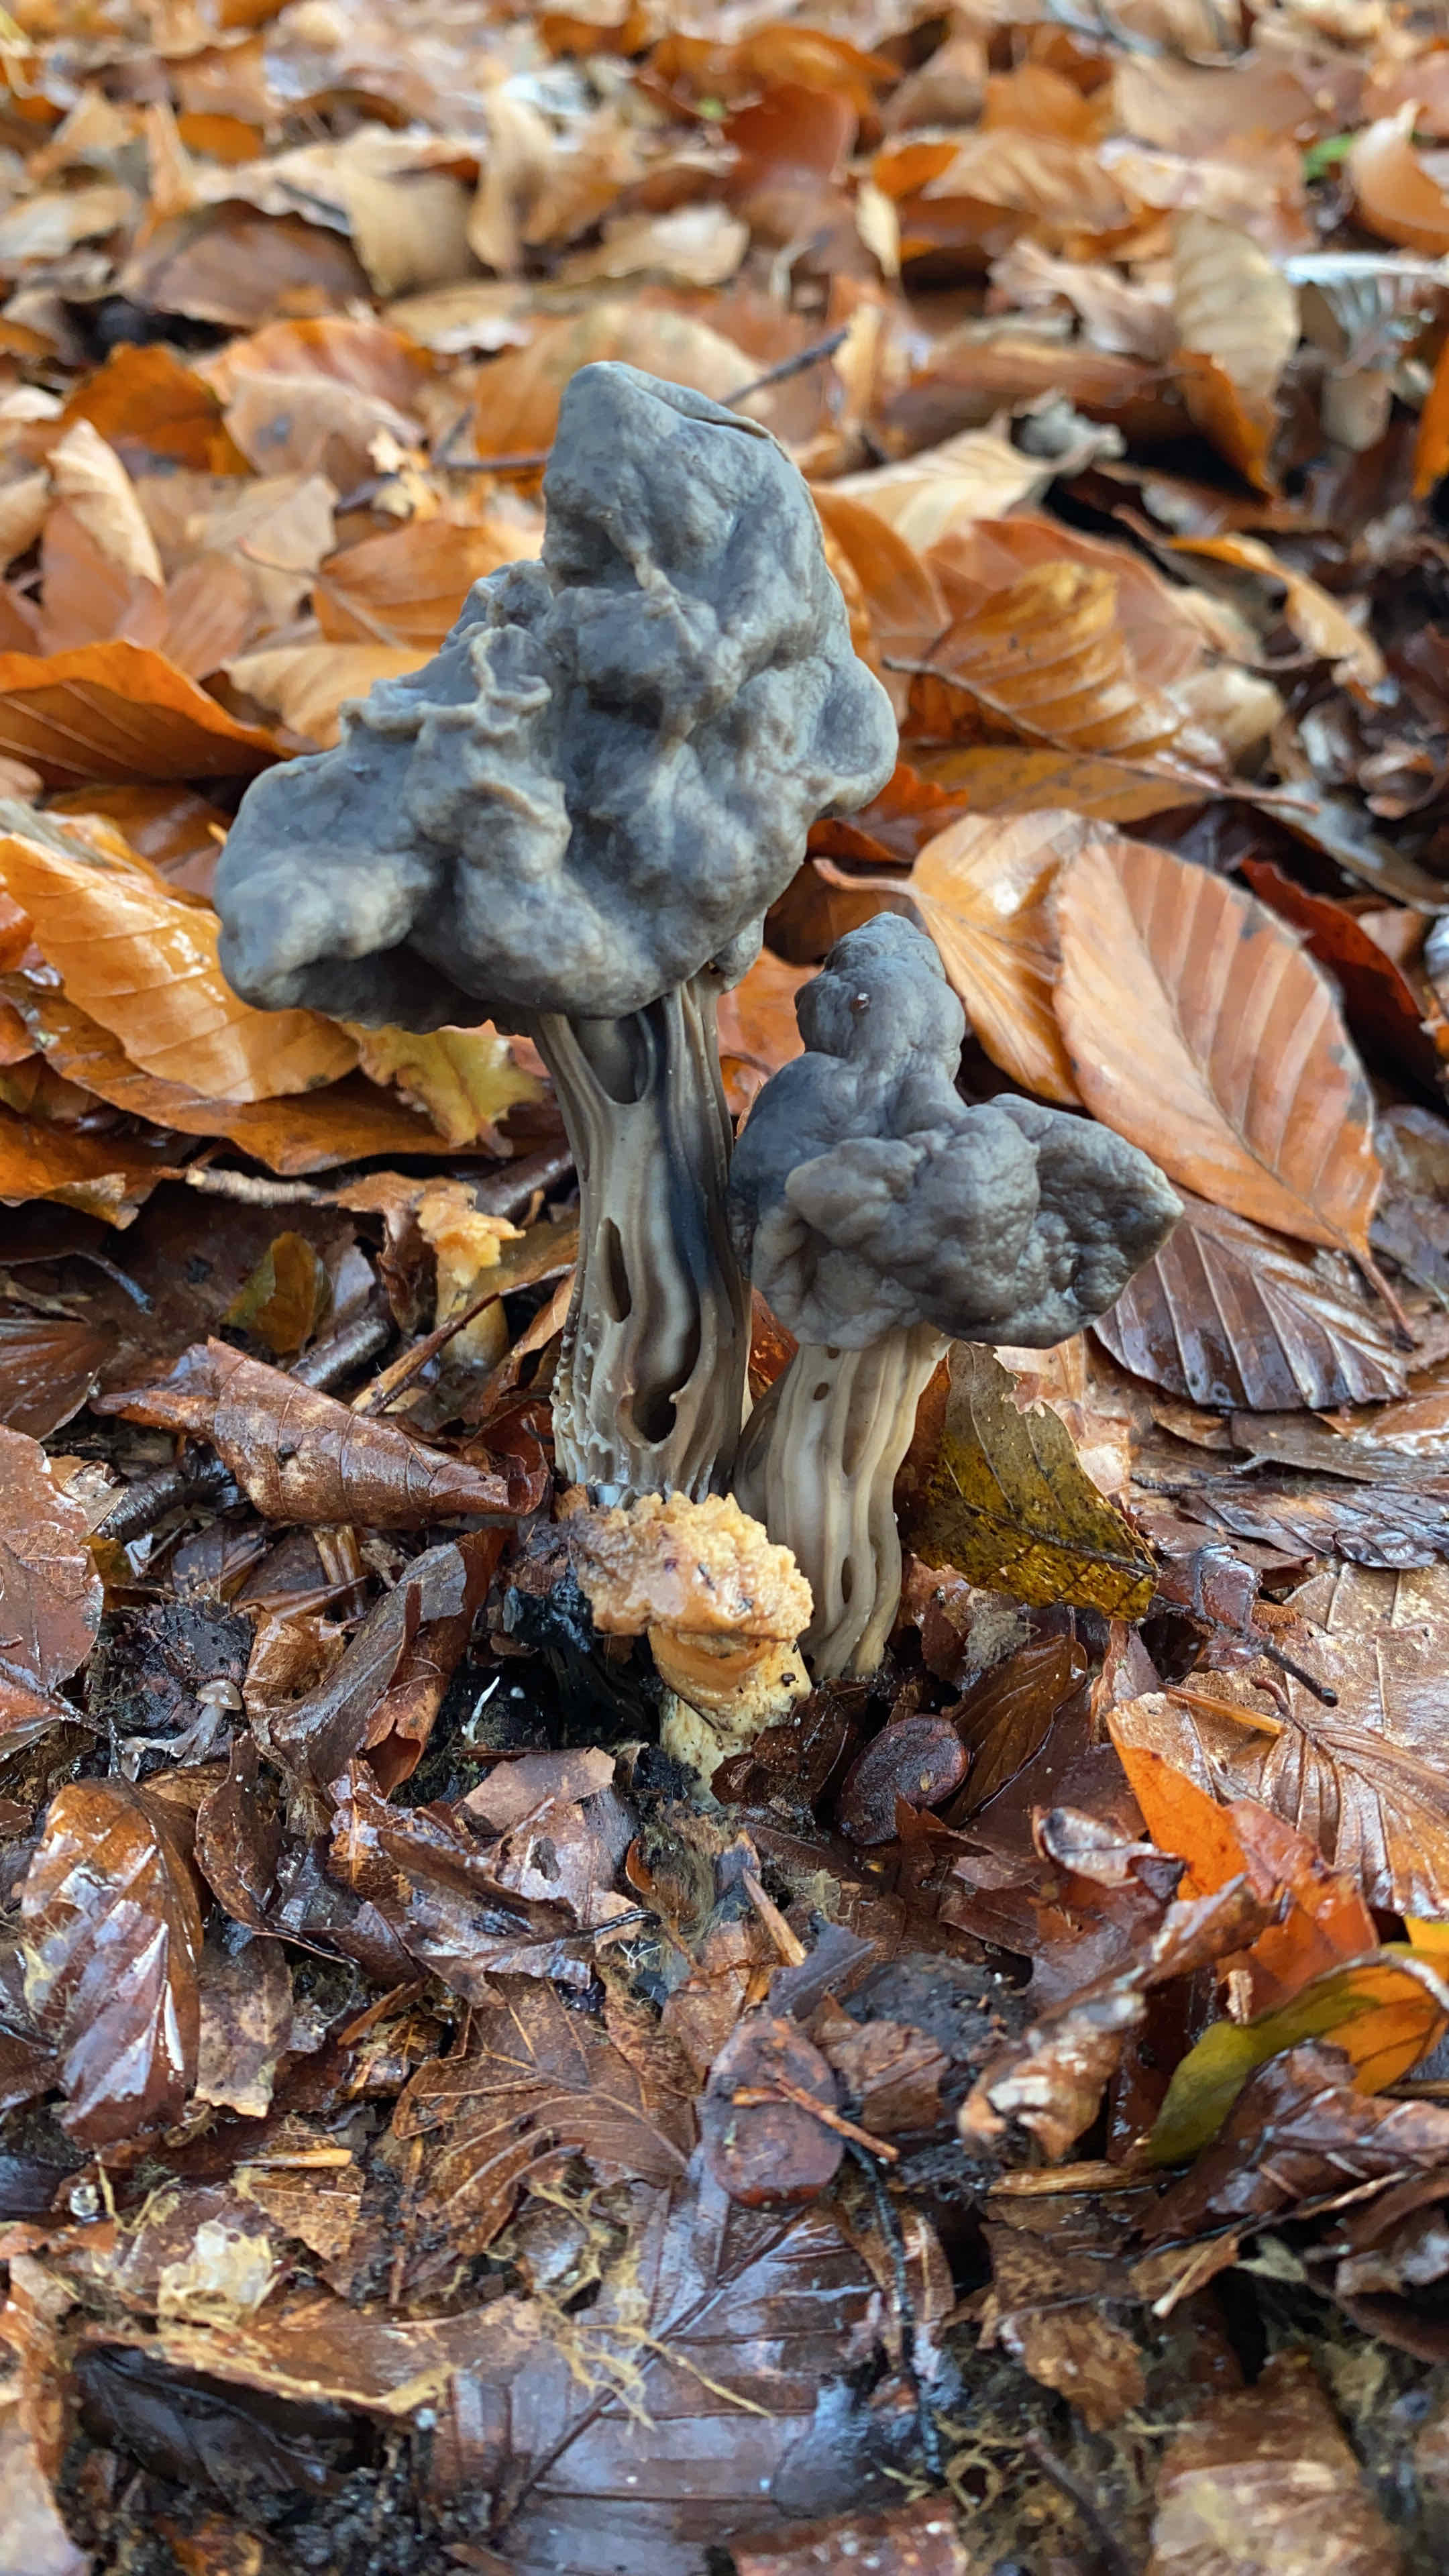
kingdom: Fungi
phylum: Ascomycota
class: Pezizomycetes
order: Pezizales
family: Helvellaceae
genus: Helvella
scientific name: Helvella lacunosa
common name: grubet foldhat
